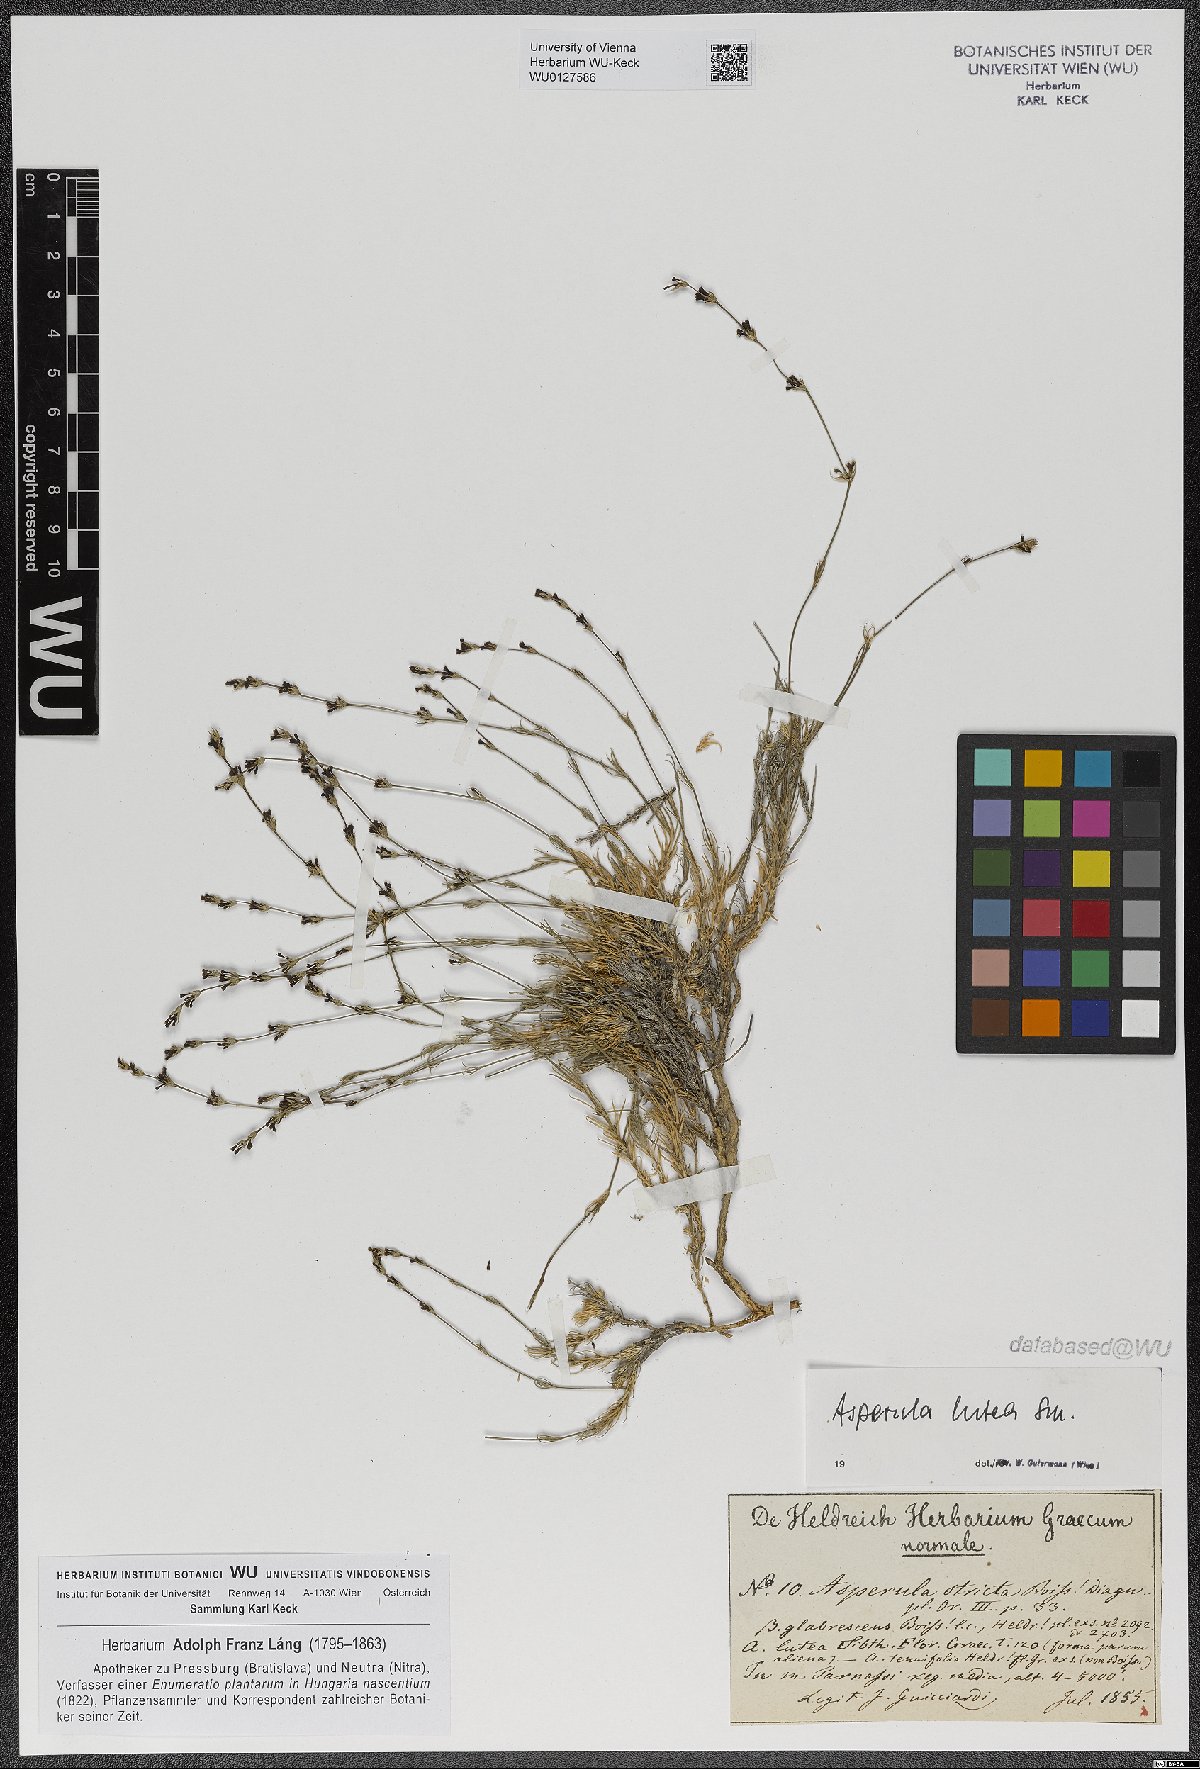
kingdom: Plantae
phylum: Tracheophyta
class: Magnoliopsida
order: Gentianales
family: Rubiaceae
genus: Cynanchica
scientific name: Cynanchica lutea
